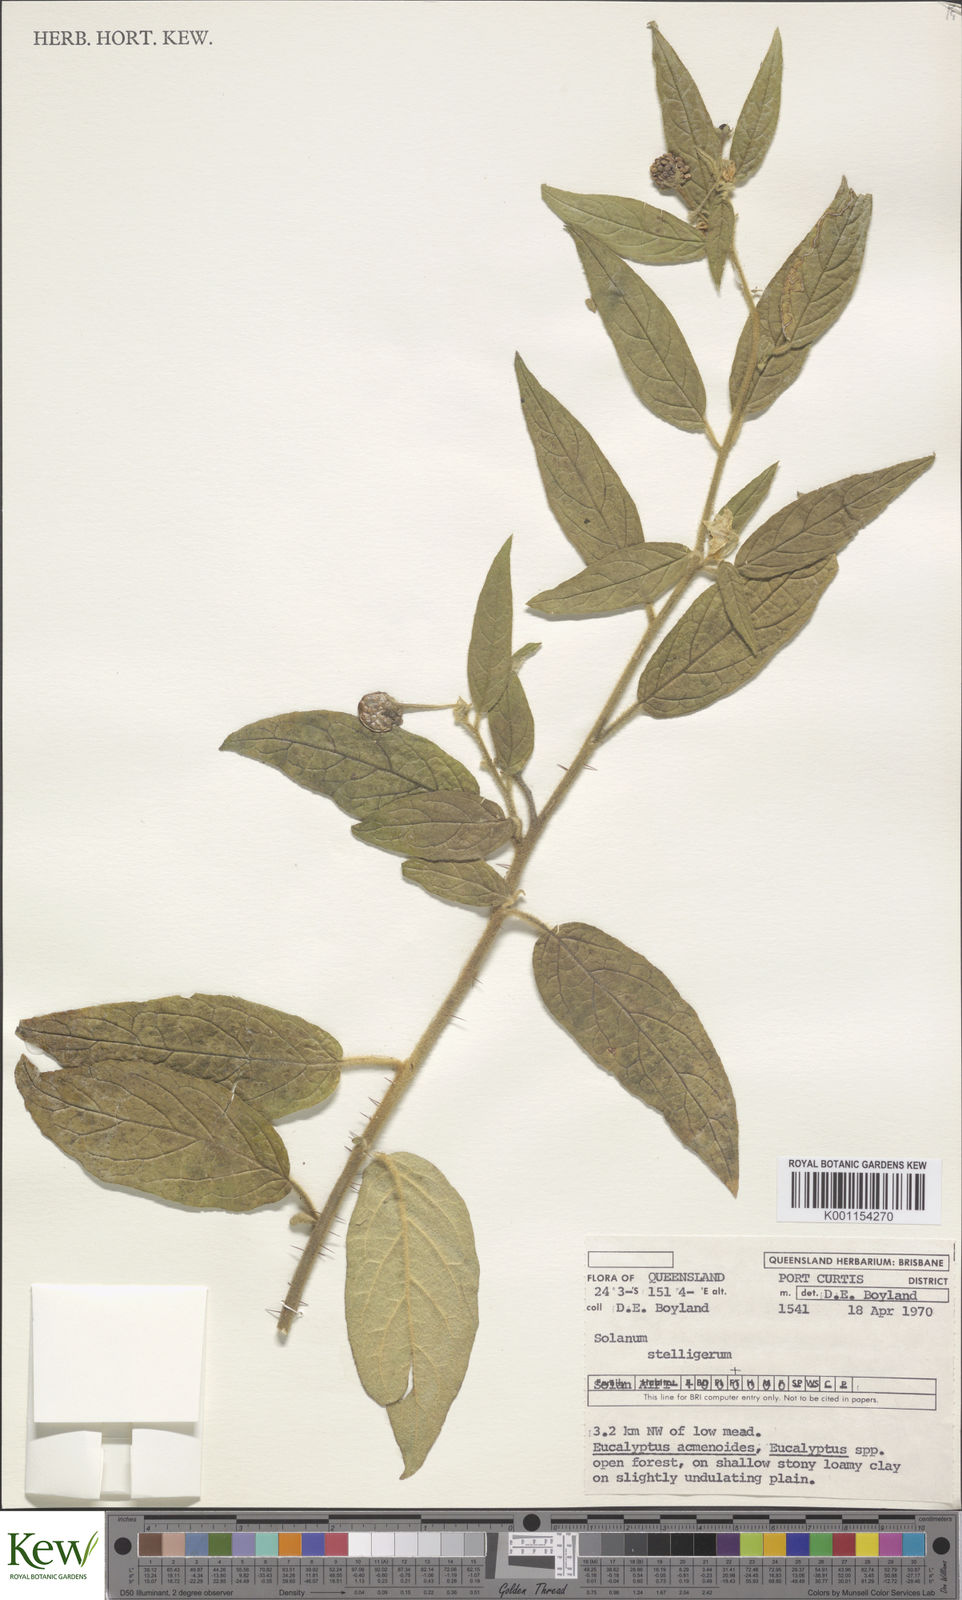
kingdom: Plantae
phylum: Tracheophyta
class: Magnoliopsida
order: Solanales
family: Solanaceae
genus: Solanum
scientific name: Solanum stelligerum
